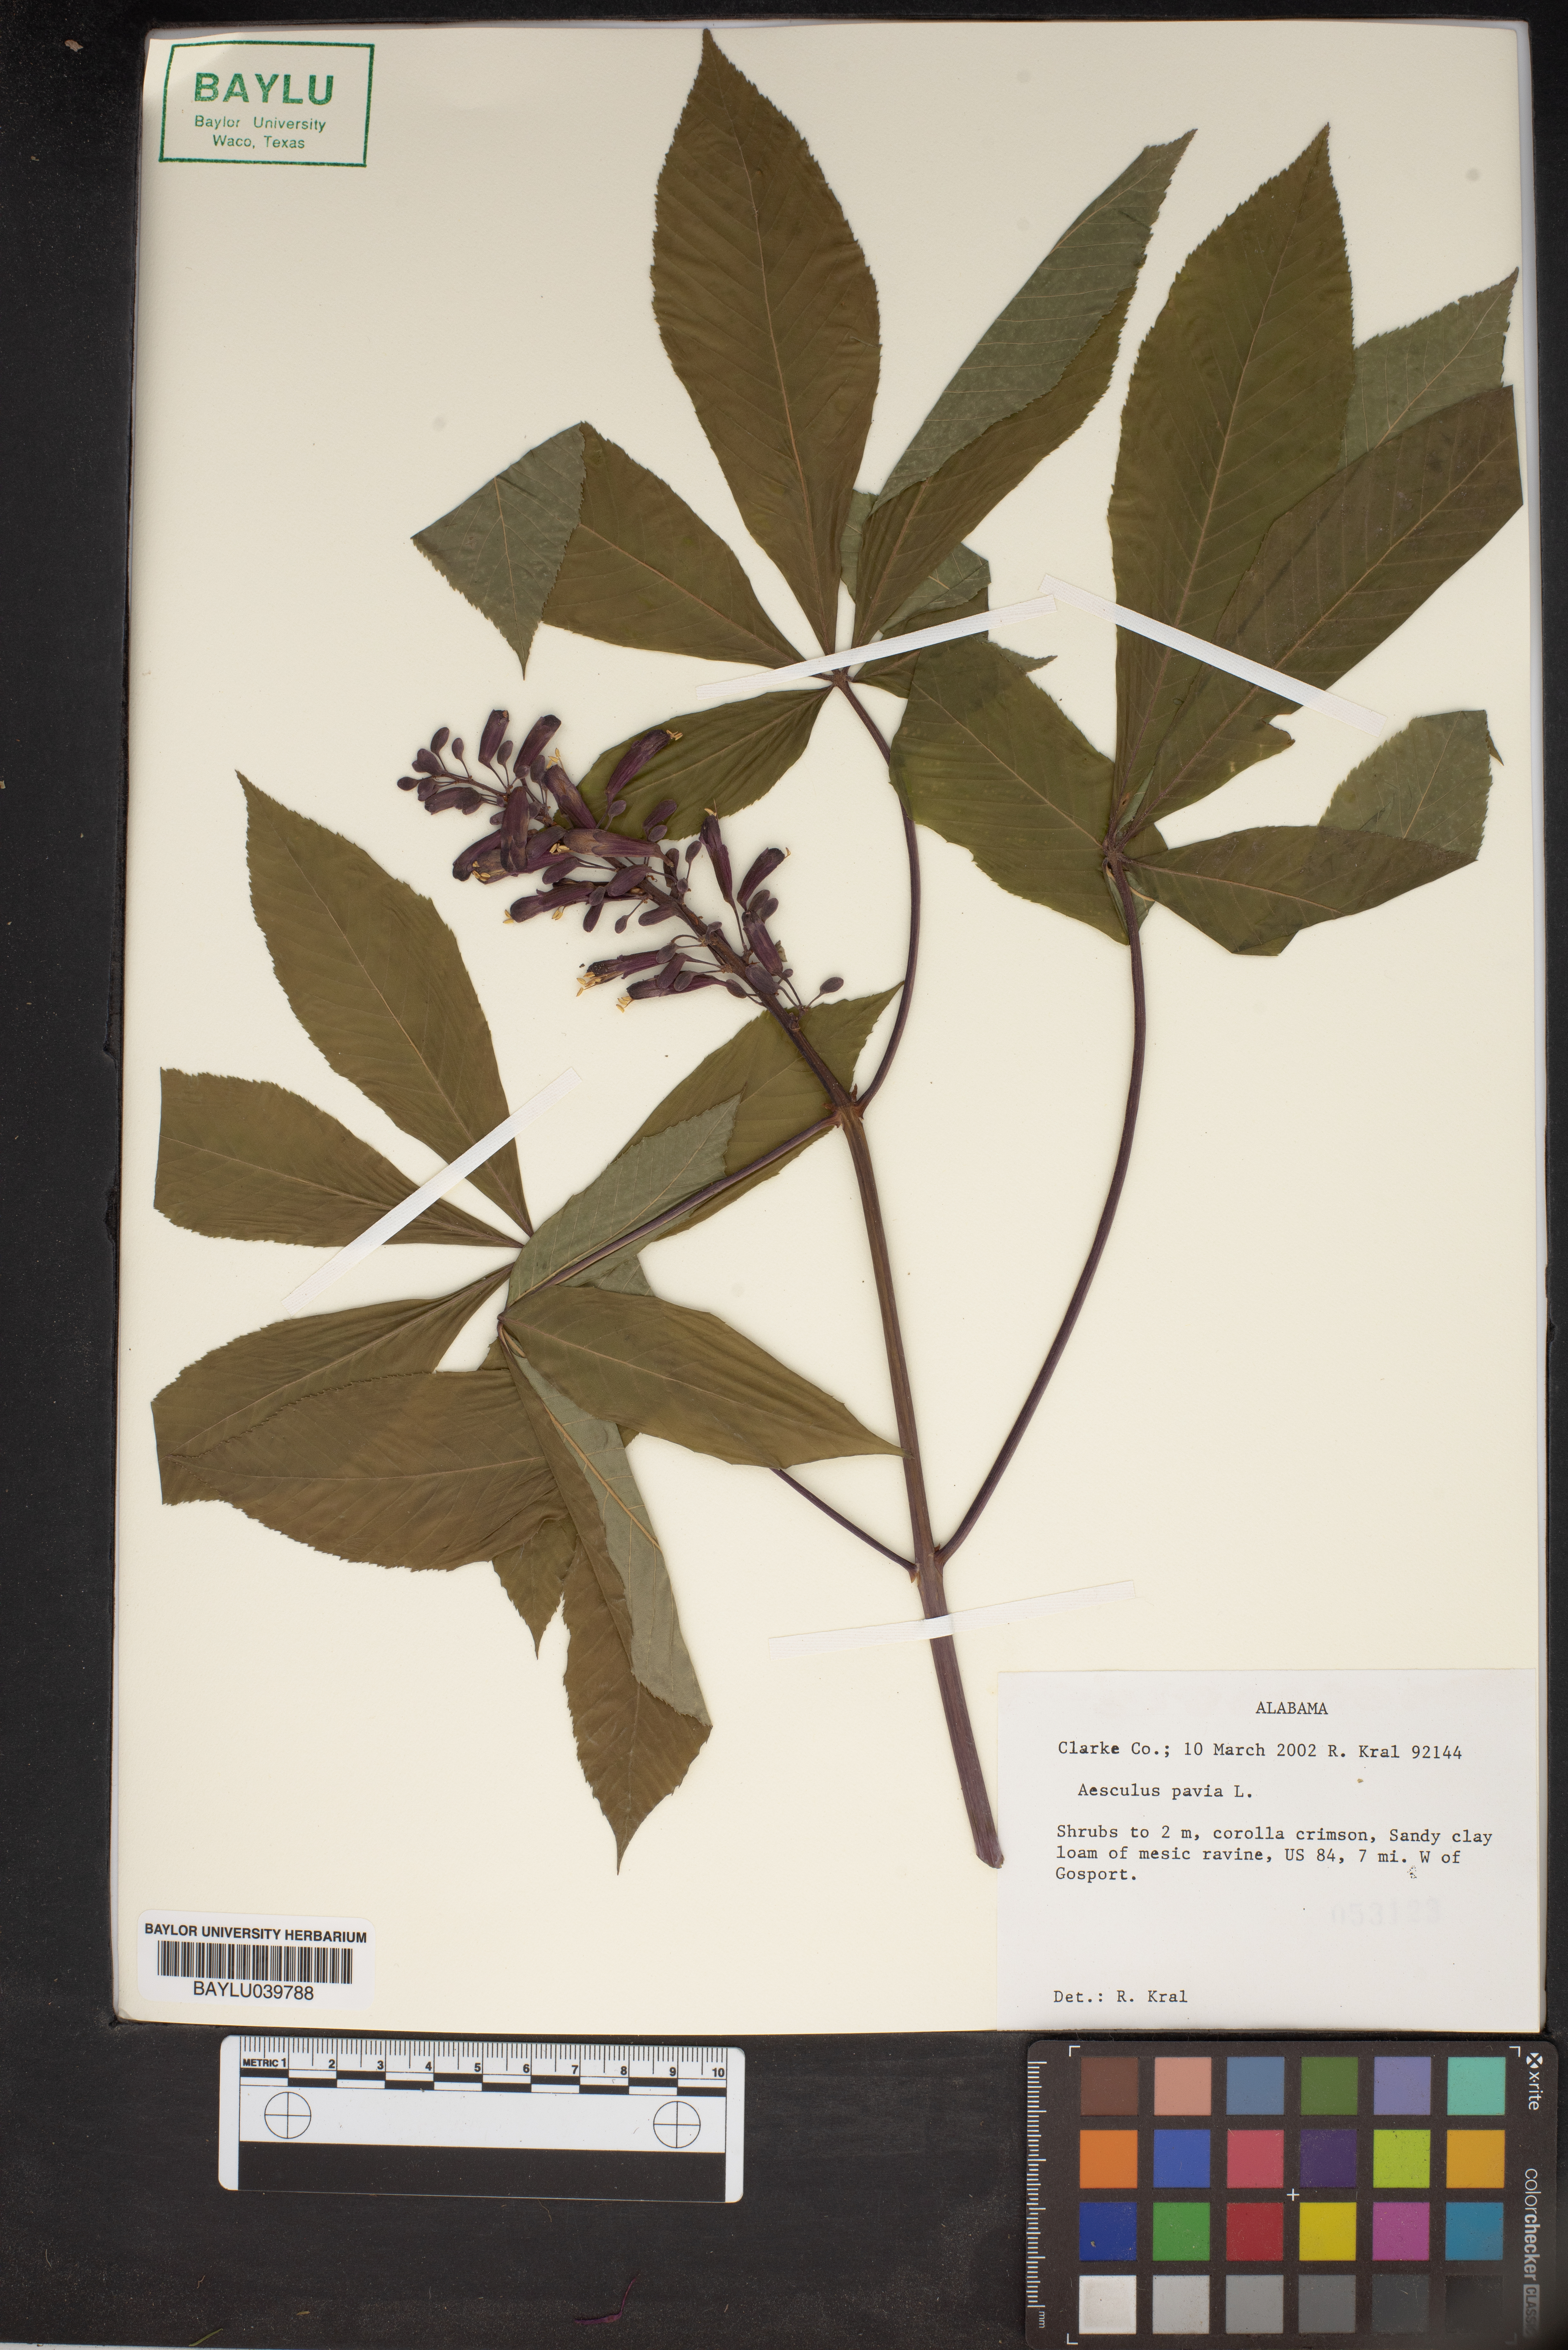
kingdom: Plantae
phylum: Tracheophyta
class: Magnoliopsida
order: Sapindales
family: Sapindaceae
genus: Aesculus
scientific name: Aesculus pavia
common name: Red buckeye
